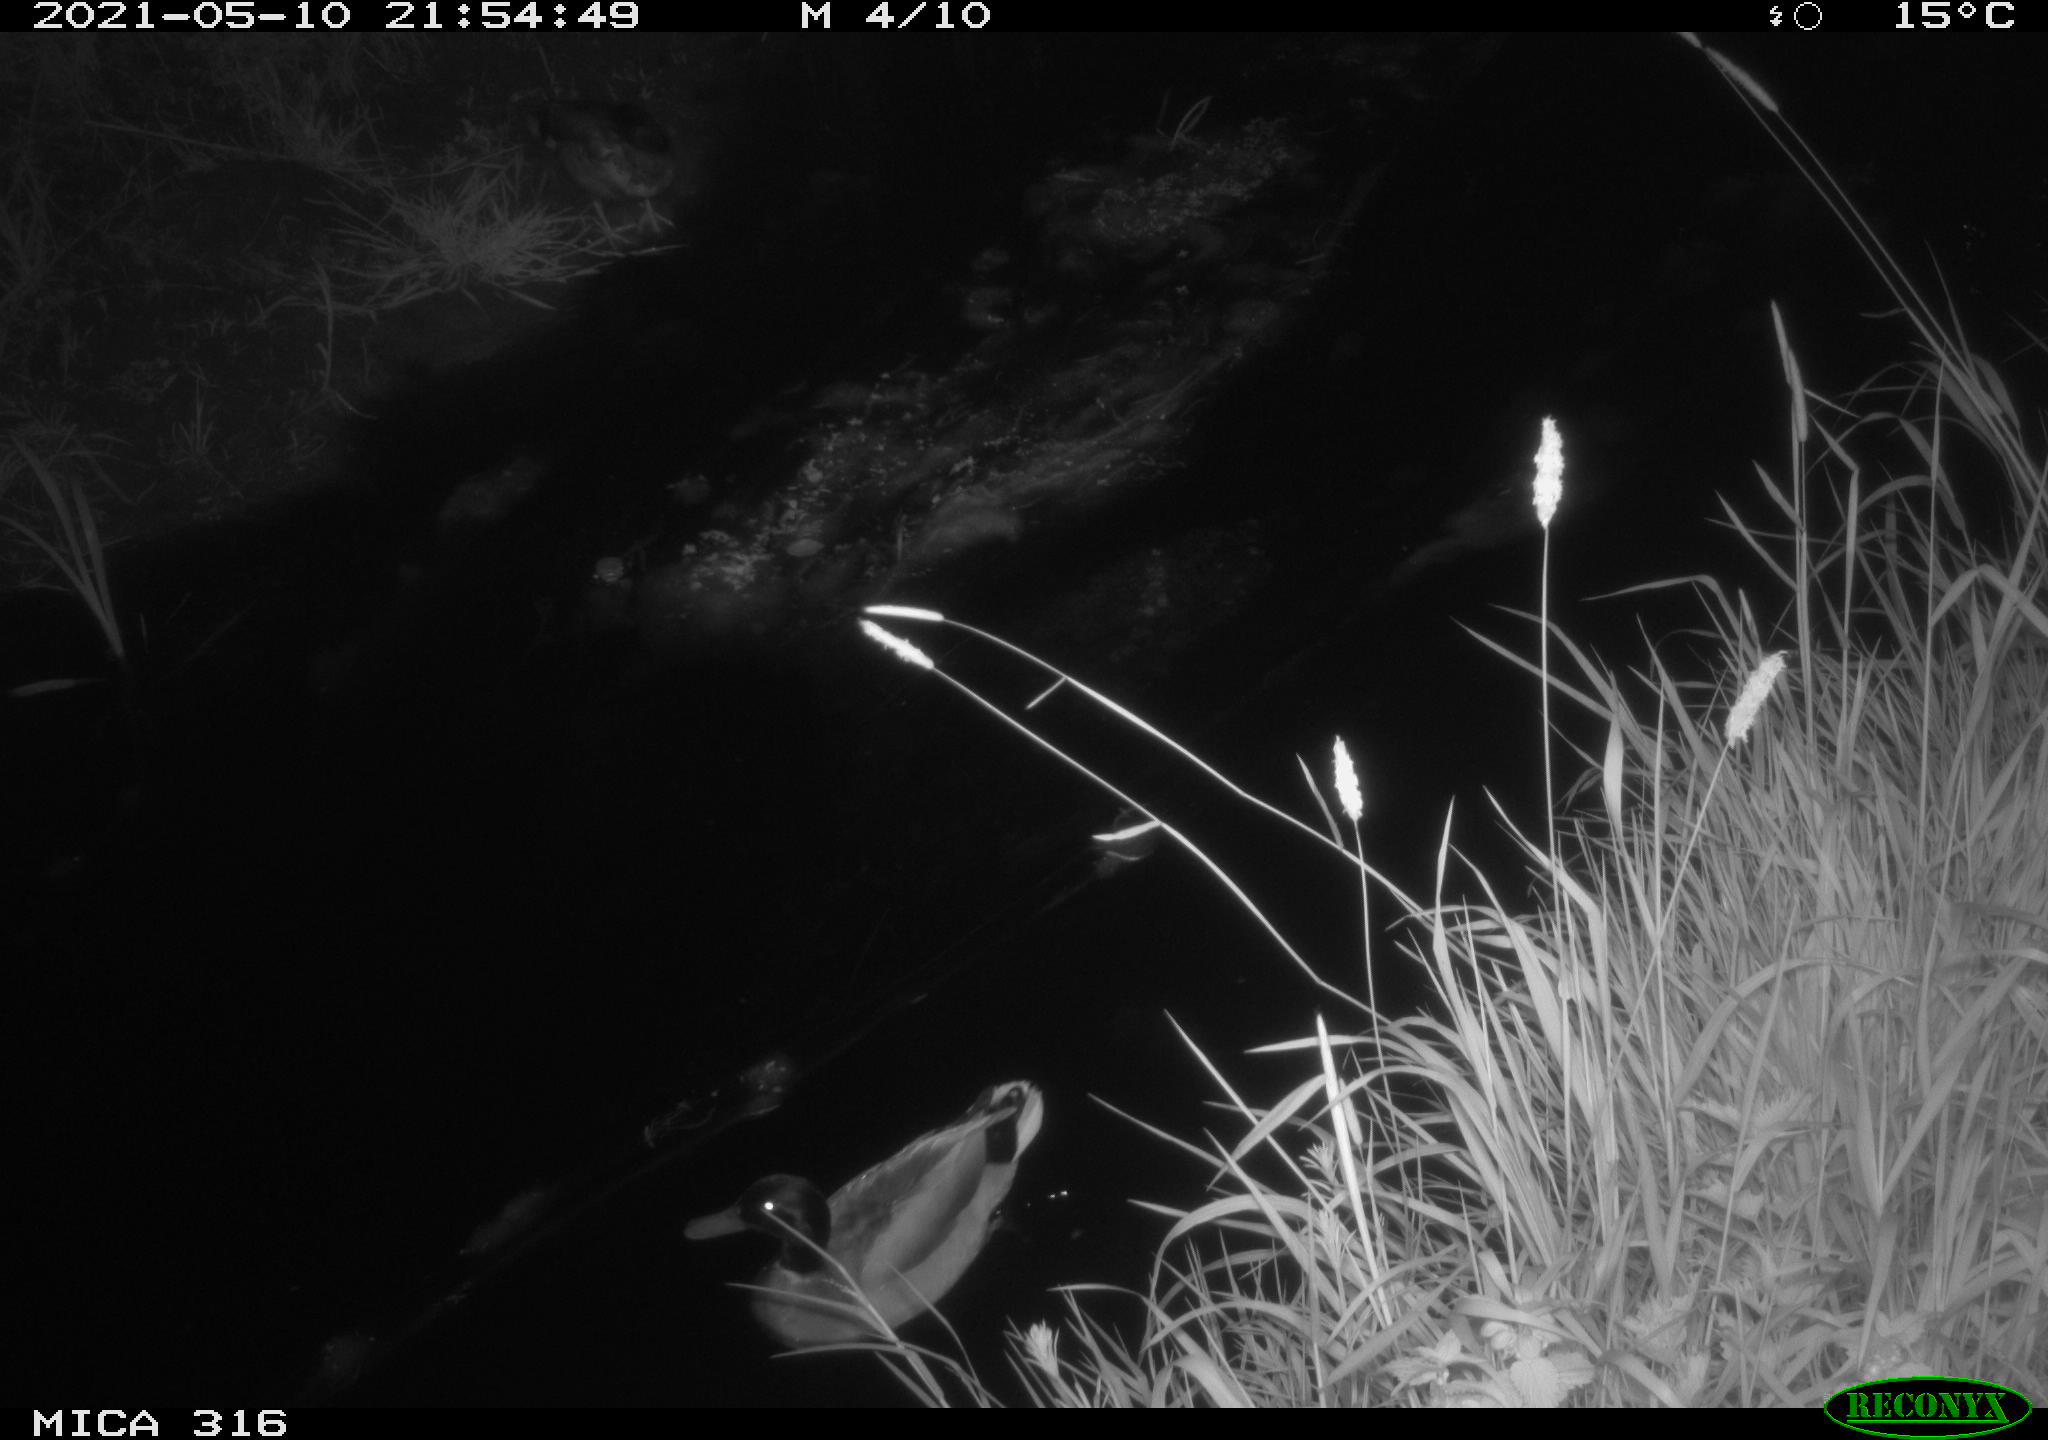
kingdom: Animalia
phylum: Chordata
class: Aves
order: Anseriformes
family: Anatidae
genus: Anas
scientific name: Anas platyrhynchos
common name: Mallard
